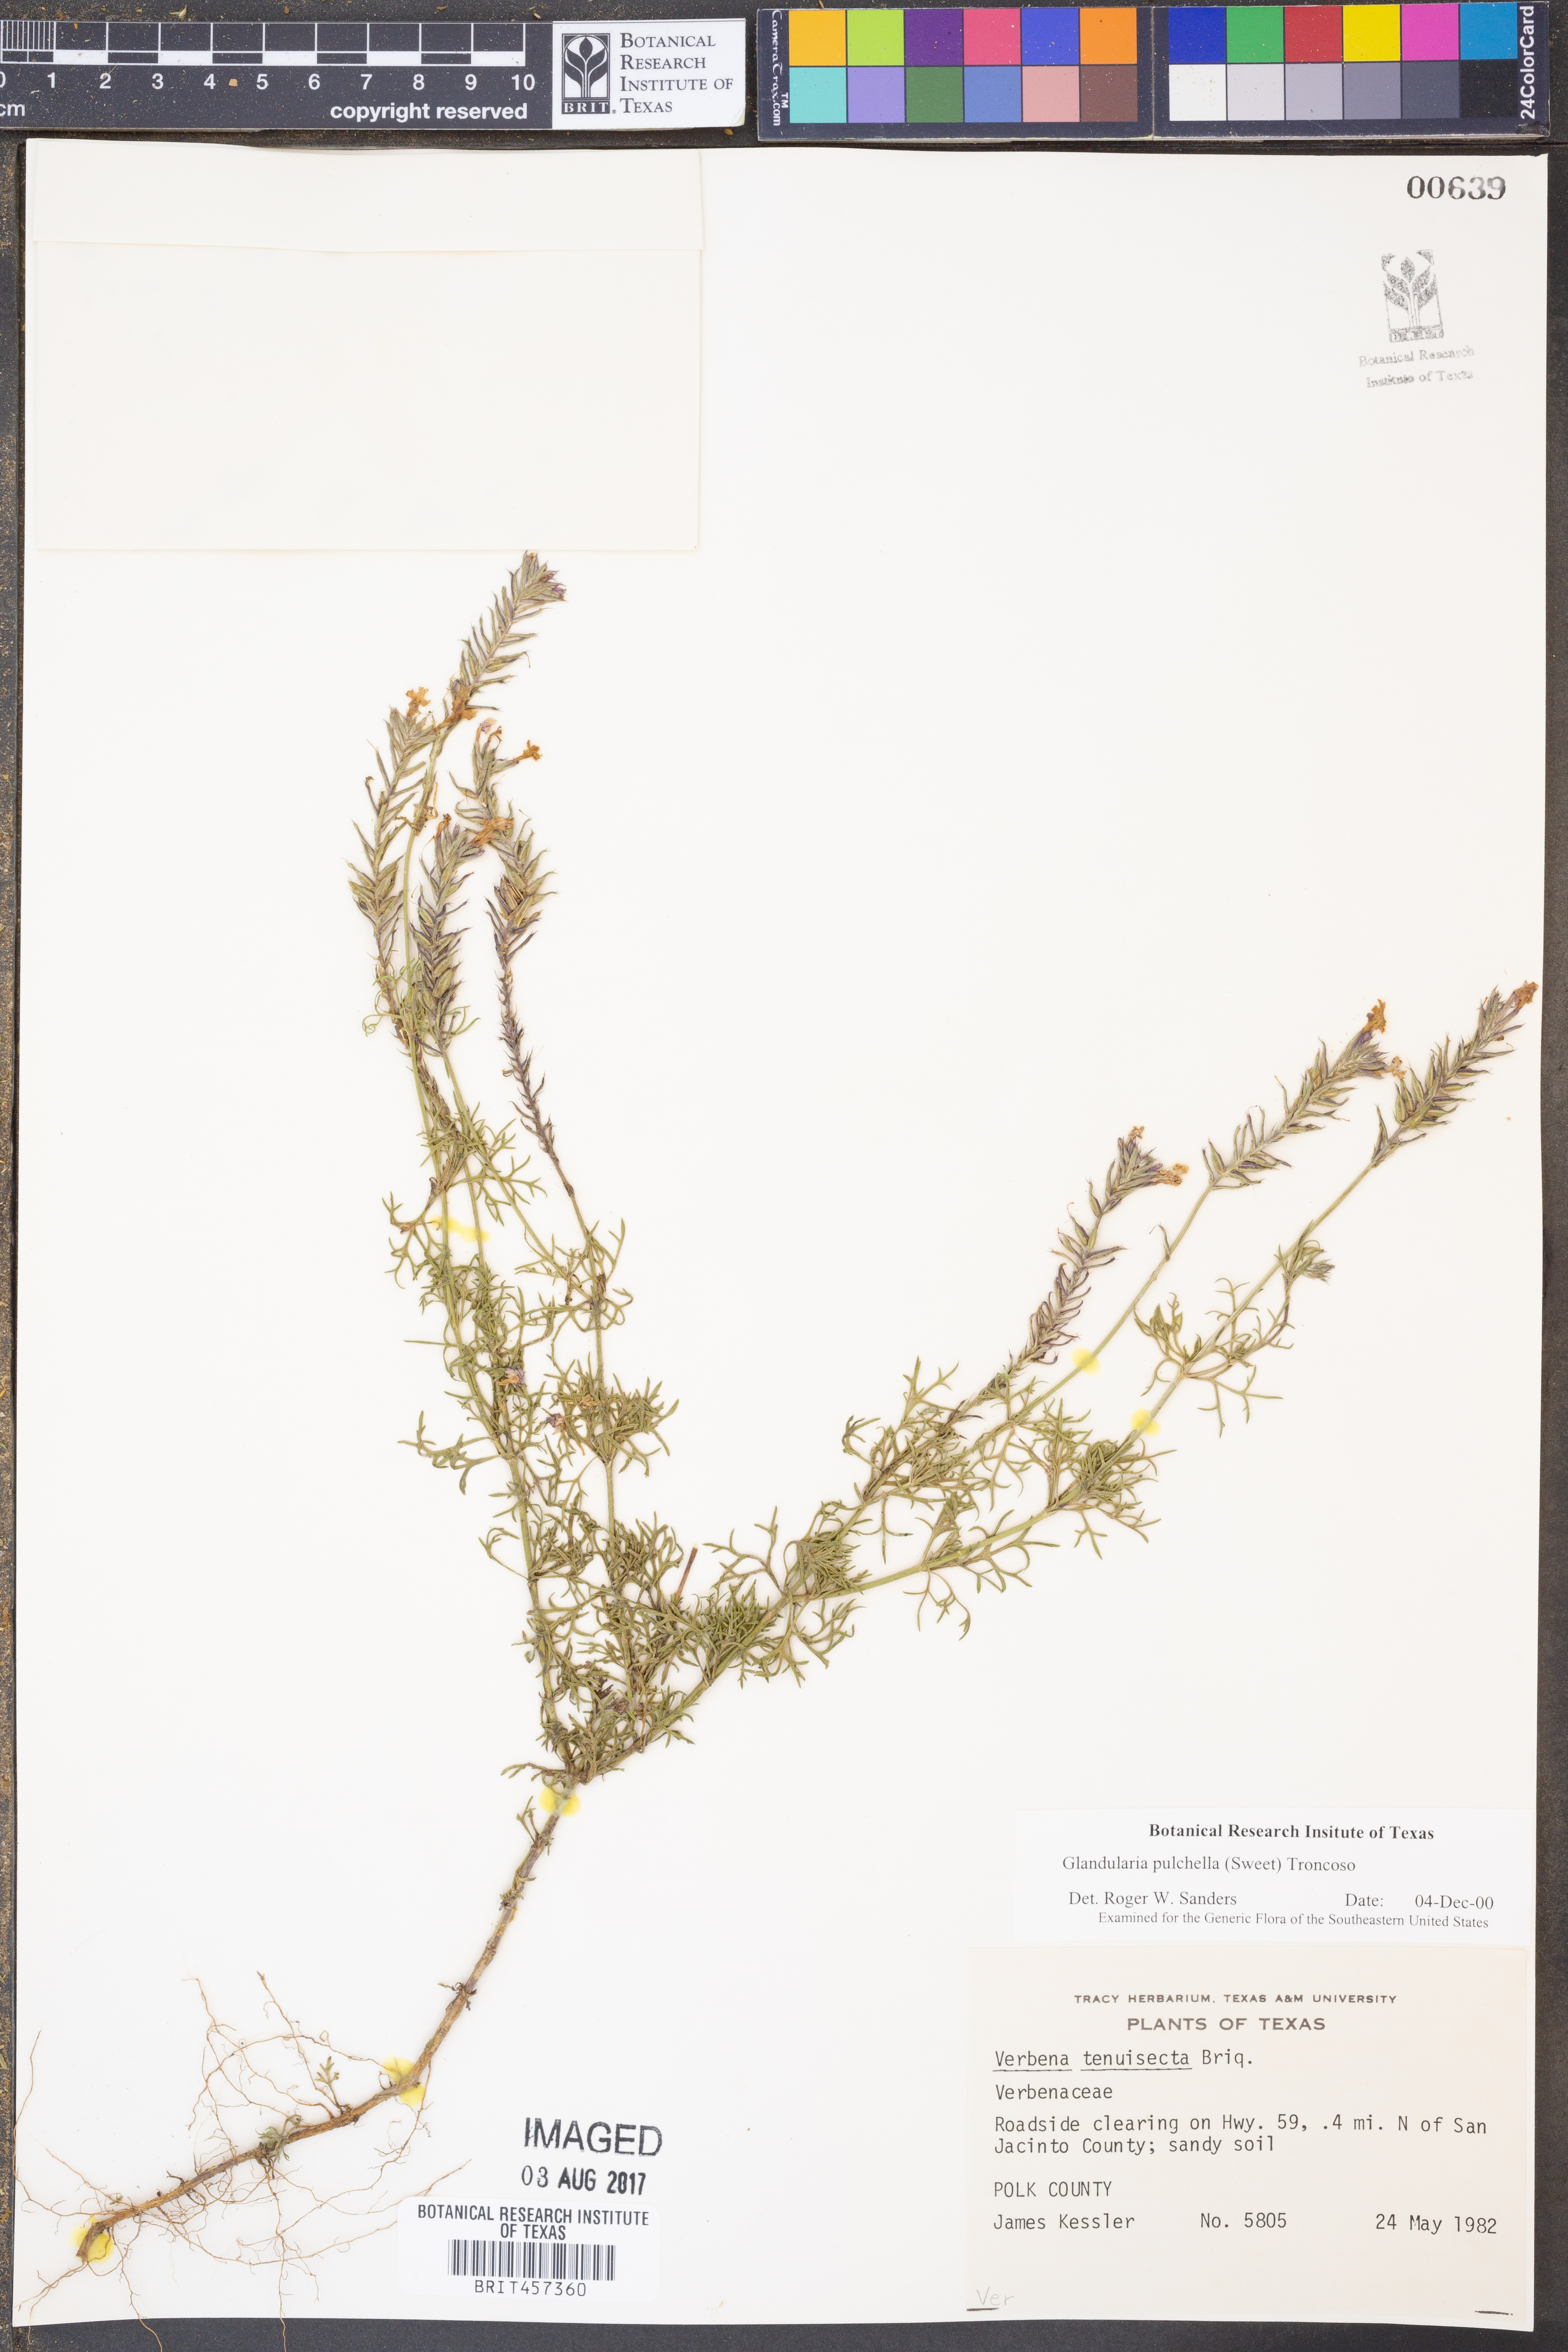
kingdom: Plantae
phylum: Tracheophyta
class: Magnoliopsida
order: Lamiales
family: Verbenaceae
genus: Verbena
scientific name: Verbena aristigera
